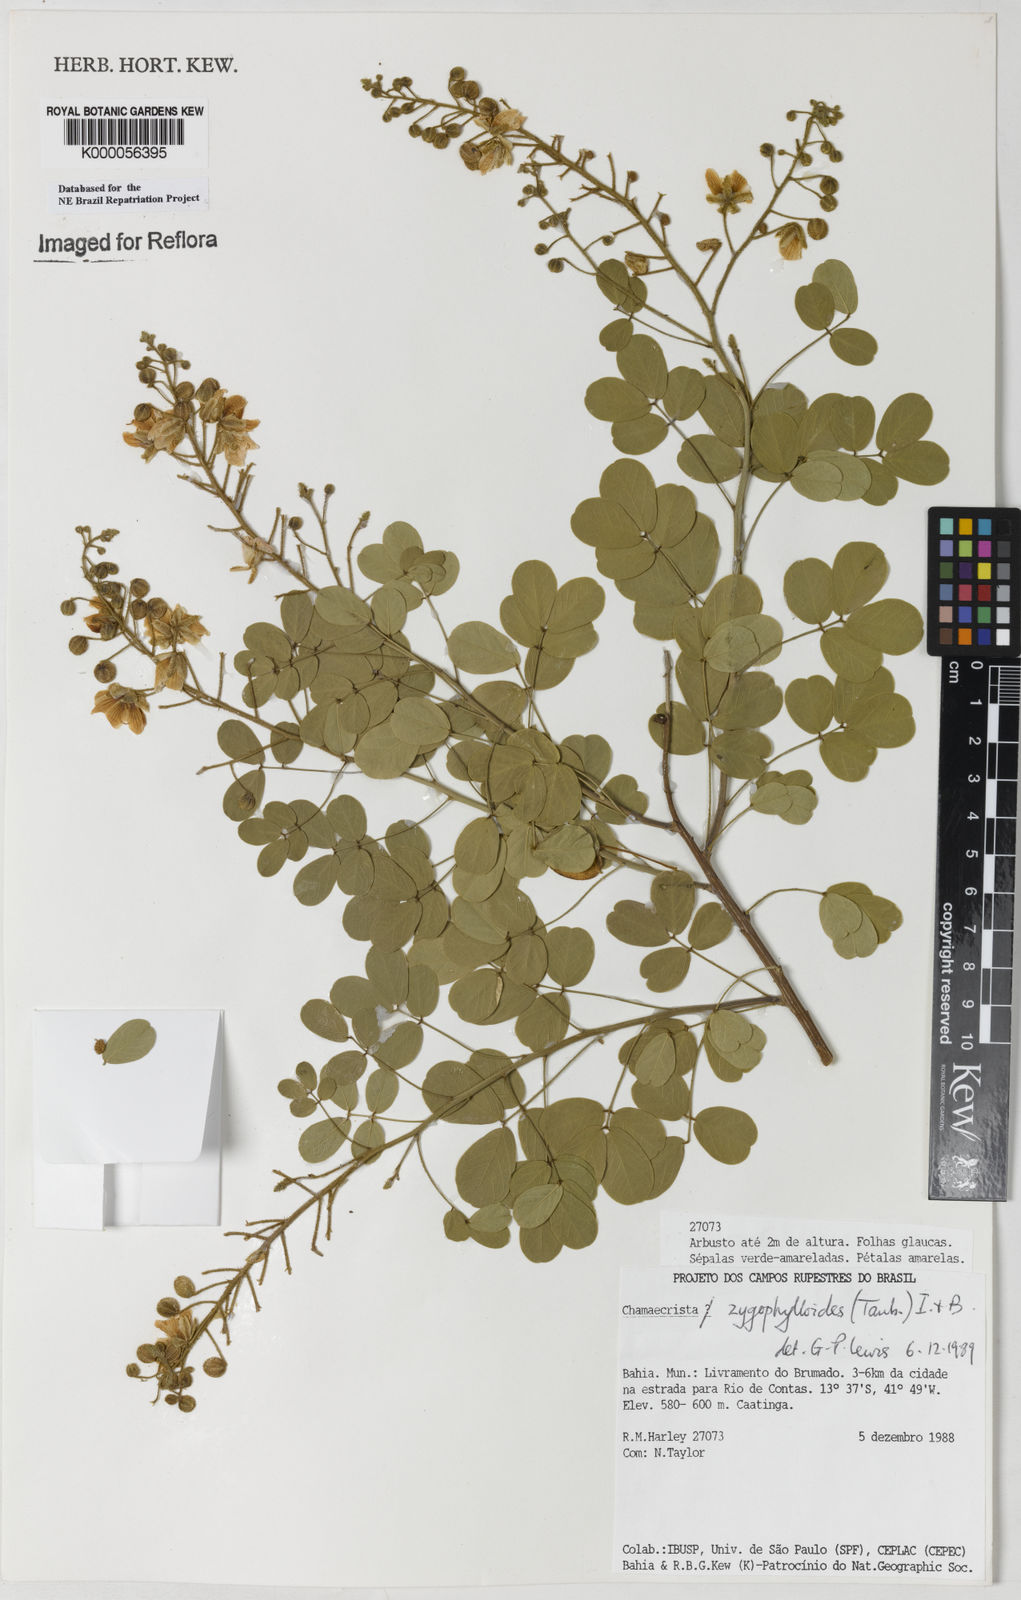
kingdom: Plantae
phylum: Tracheophyta
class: Magnoliopsida
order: Fabales
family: Fabaceae
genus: Chamaecrista
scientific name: Chamaecrista zygophylloides
